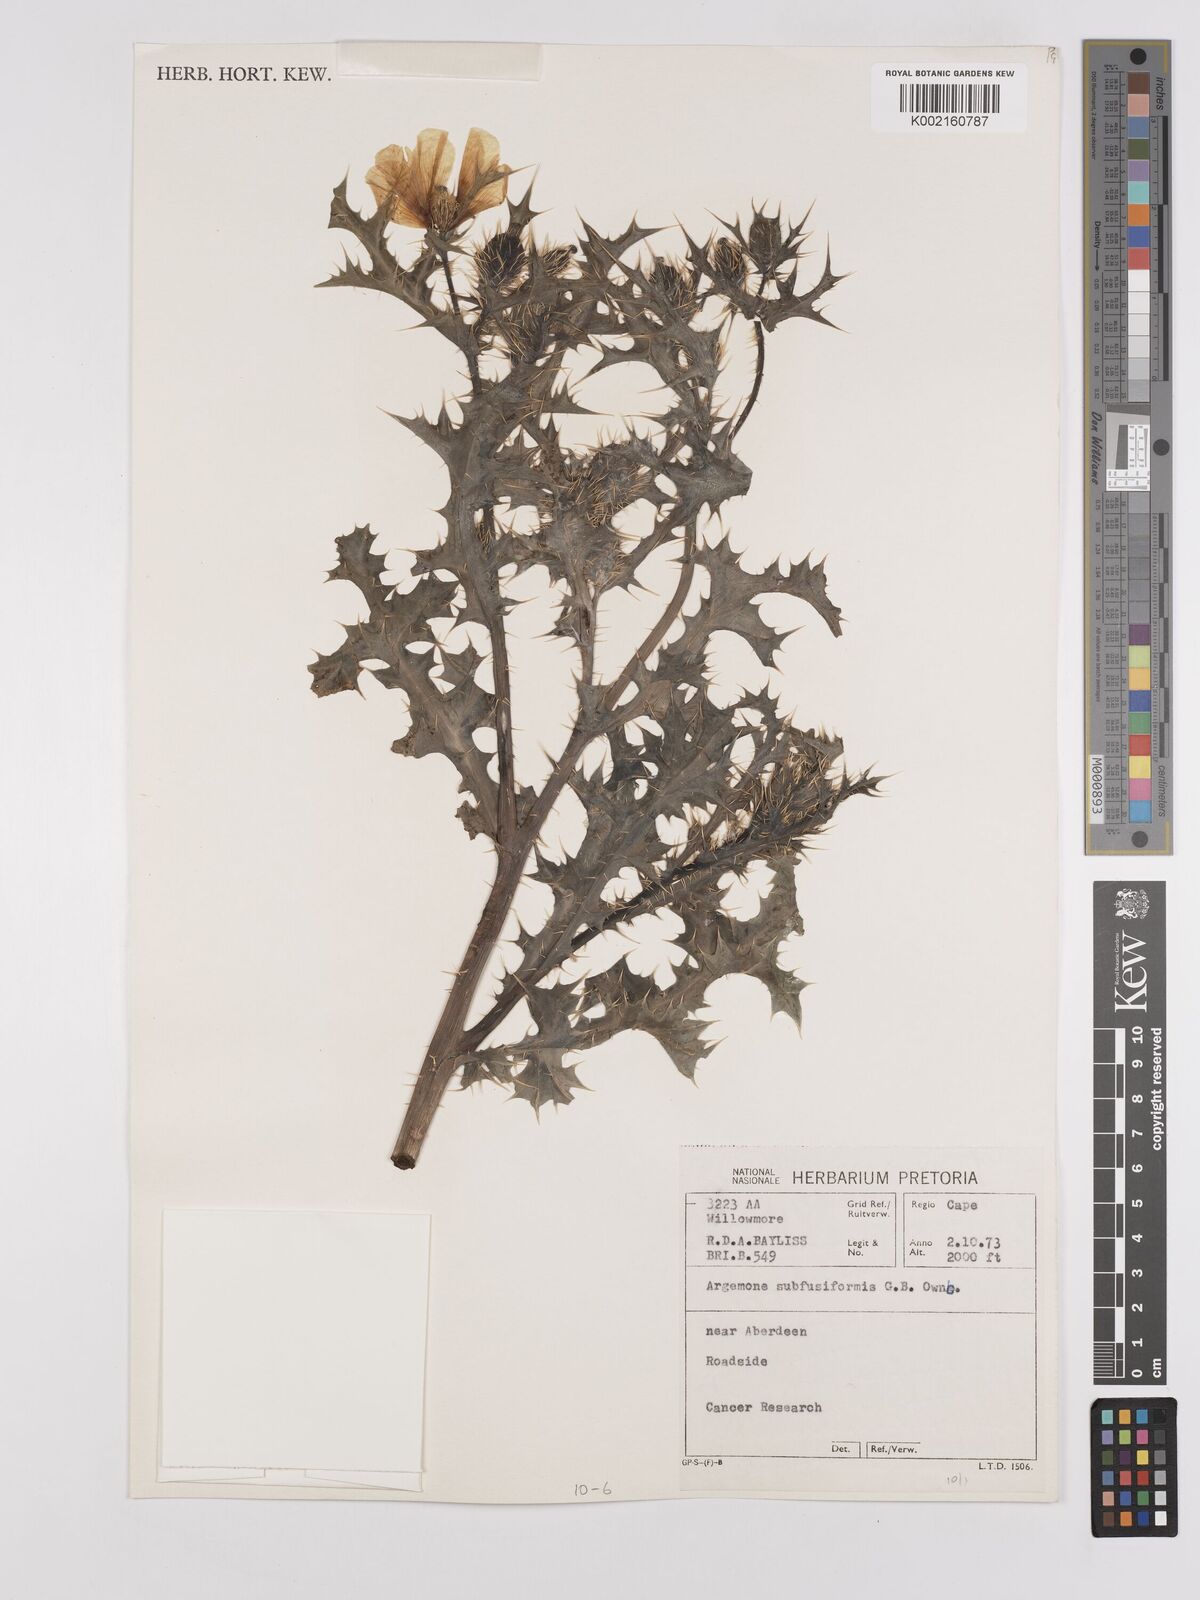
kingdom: Plantae
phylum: Tracheophyta
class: Magnoliopsida
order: Ranunculales
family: Papaveraceae
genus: Argemone
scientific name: Argemone subfusiformis
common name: American-poppy
